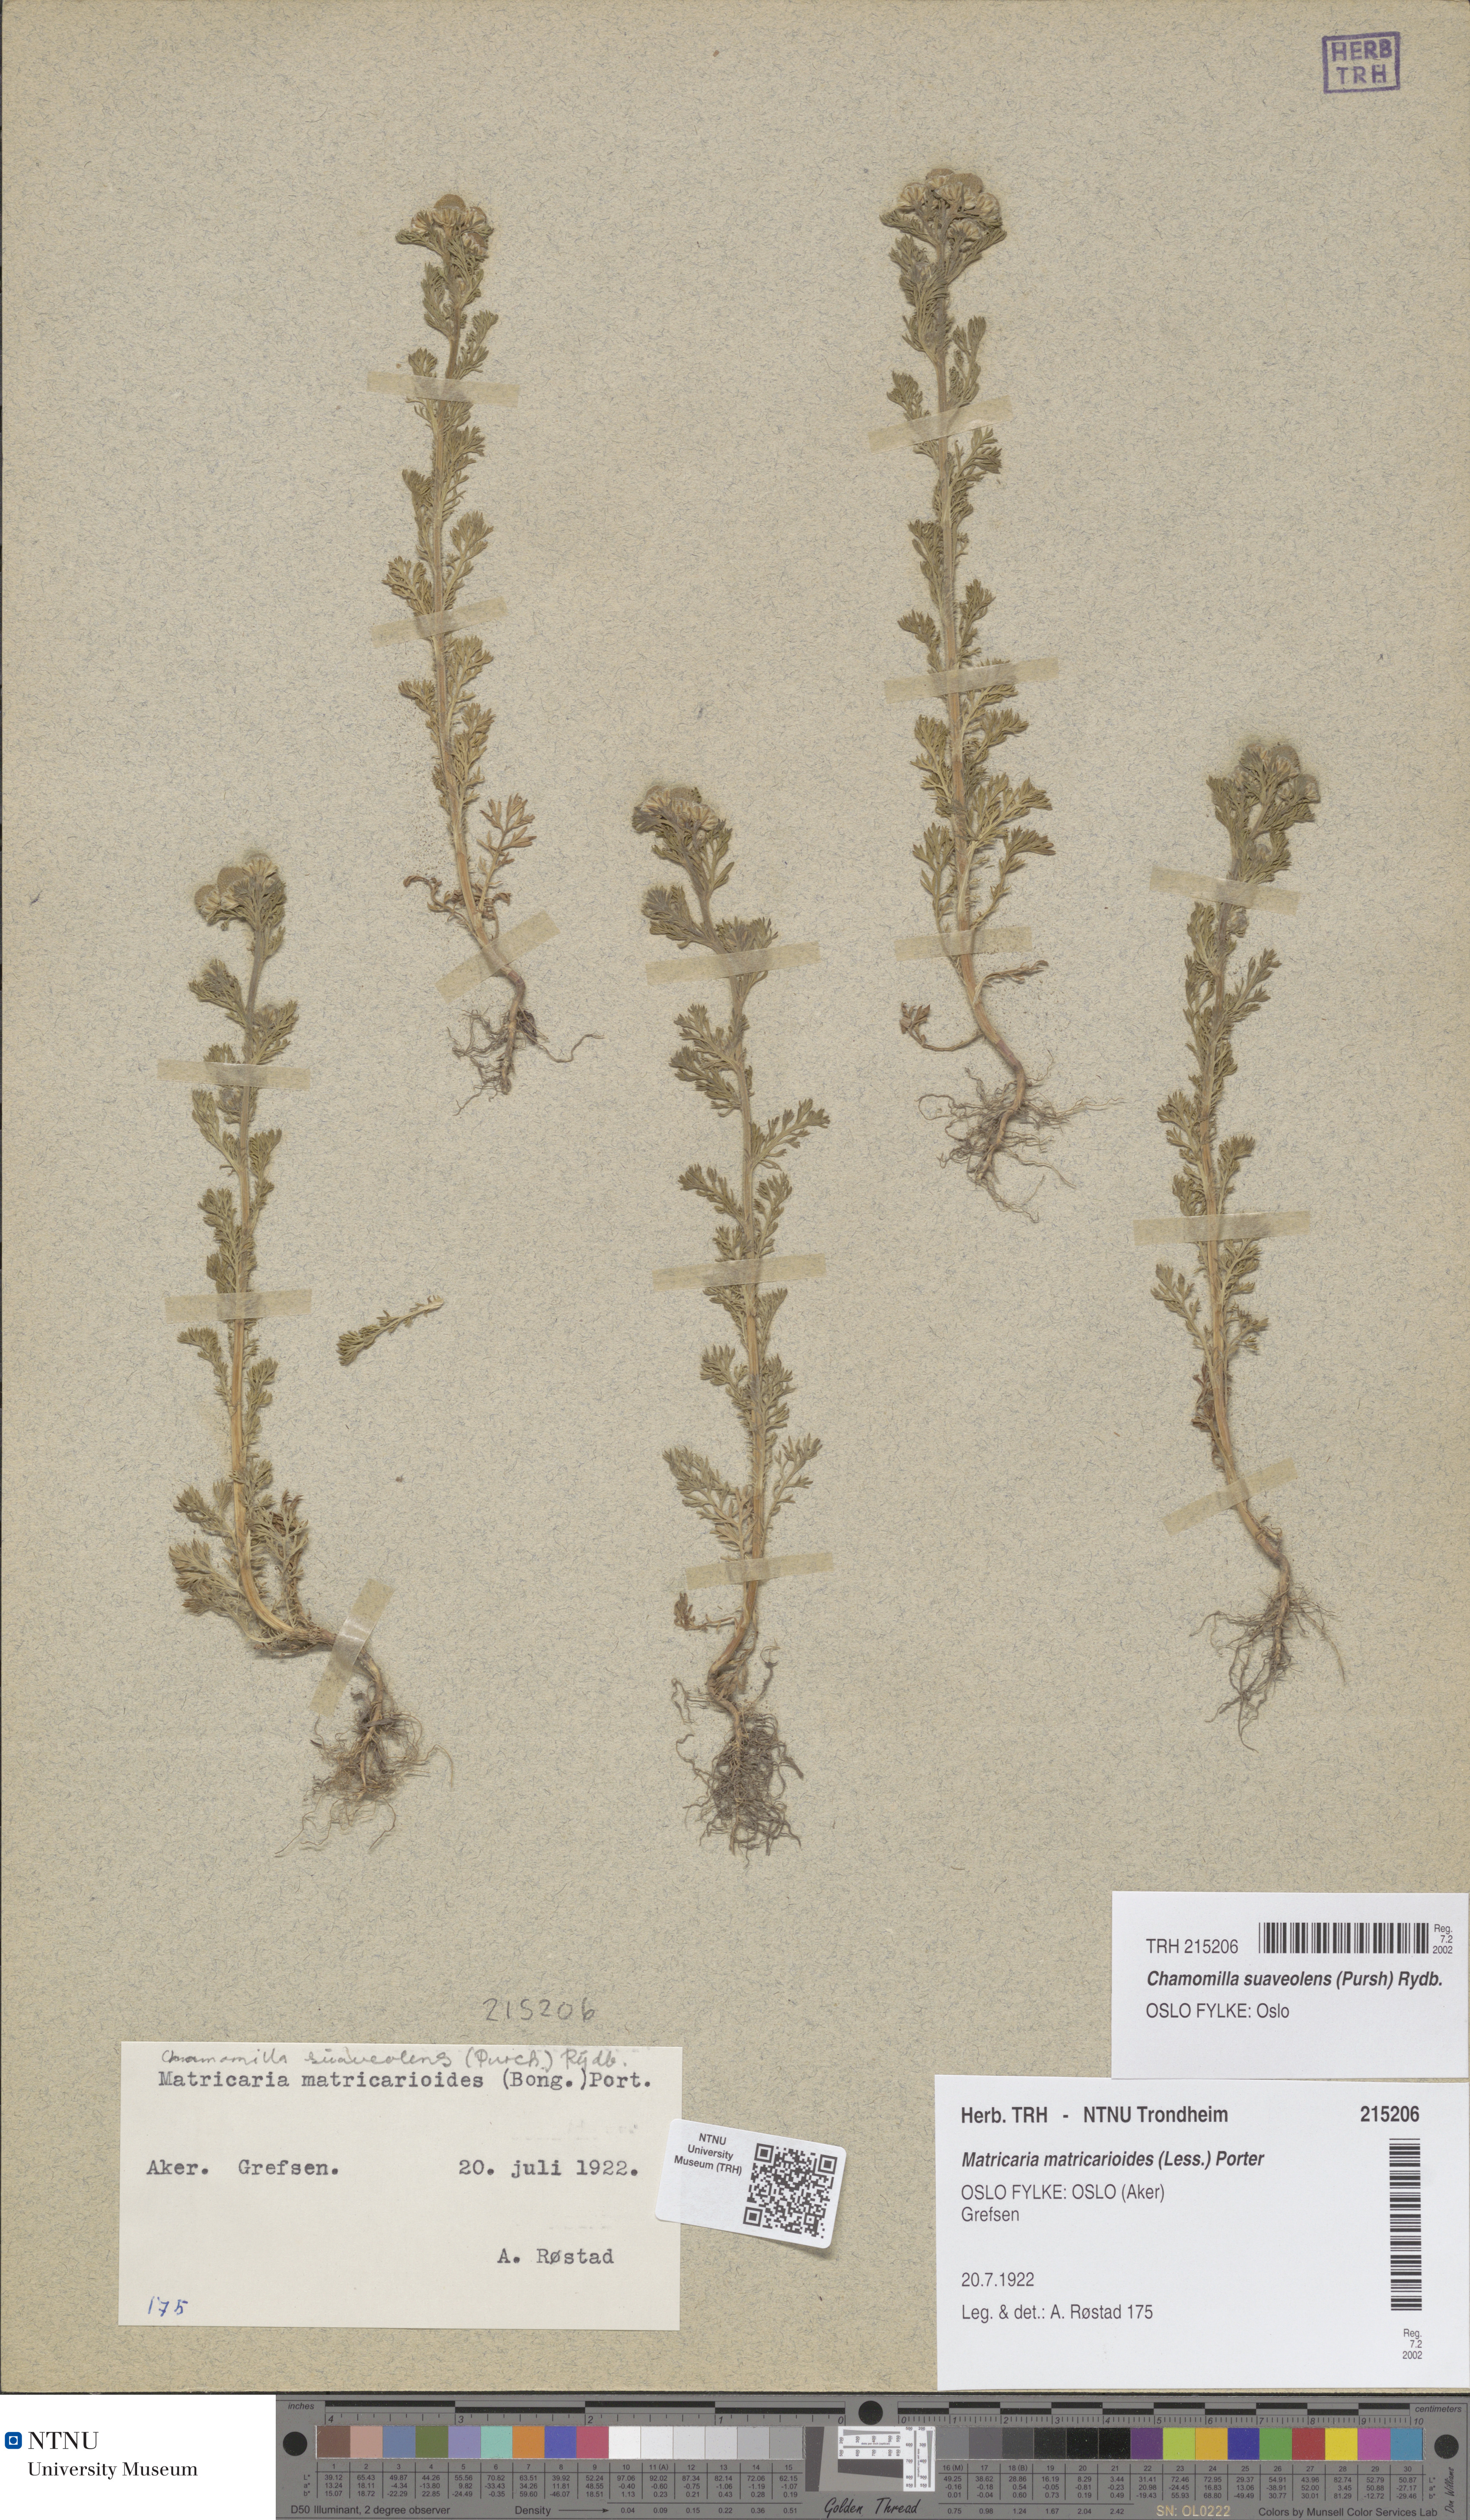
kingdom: Plantae
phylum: Tracheophyta
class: Magnoliopsida
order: Asterales
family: Asteraceae
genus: Matricaria
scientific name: Matricaria discoidea
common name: Disc mayweed
